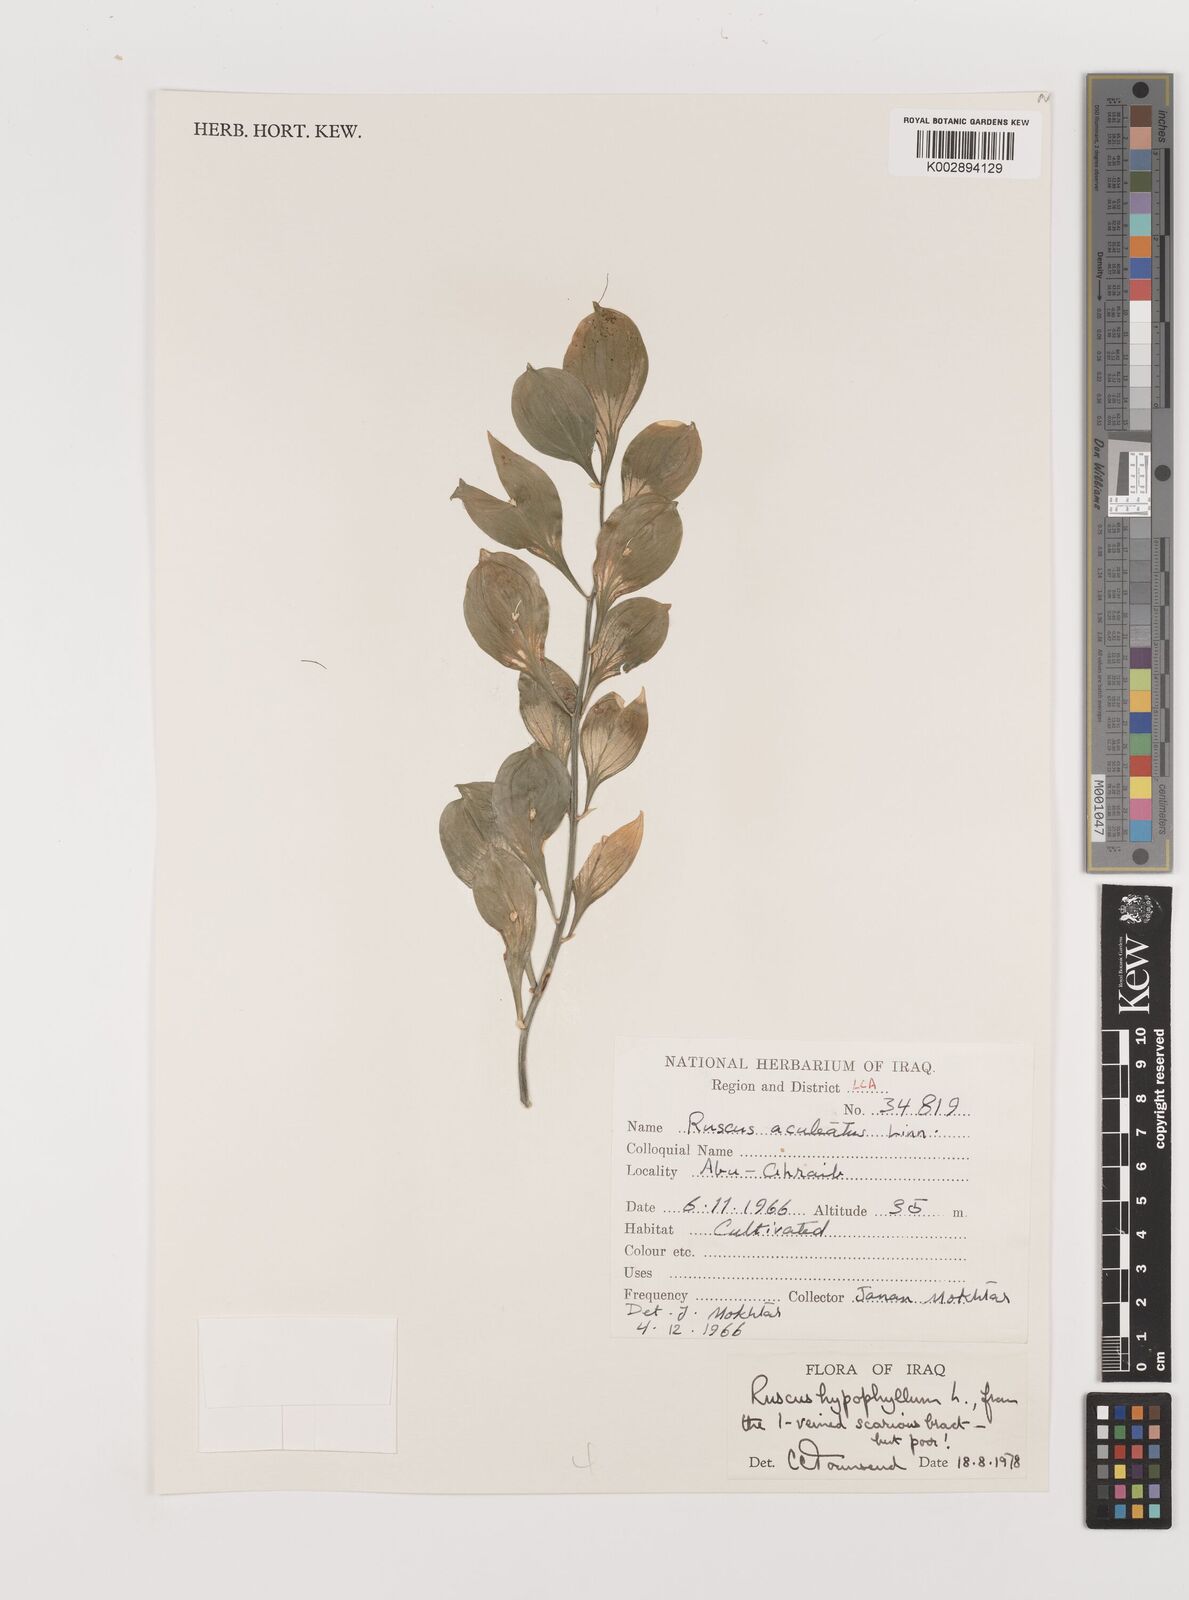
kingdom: Plantae
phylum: Tracheophyta
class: Liliopsida
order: Asparagales
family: Asparagaceae
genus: Ruscus
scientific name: Ruscus hypophyllum
